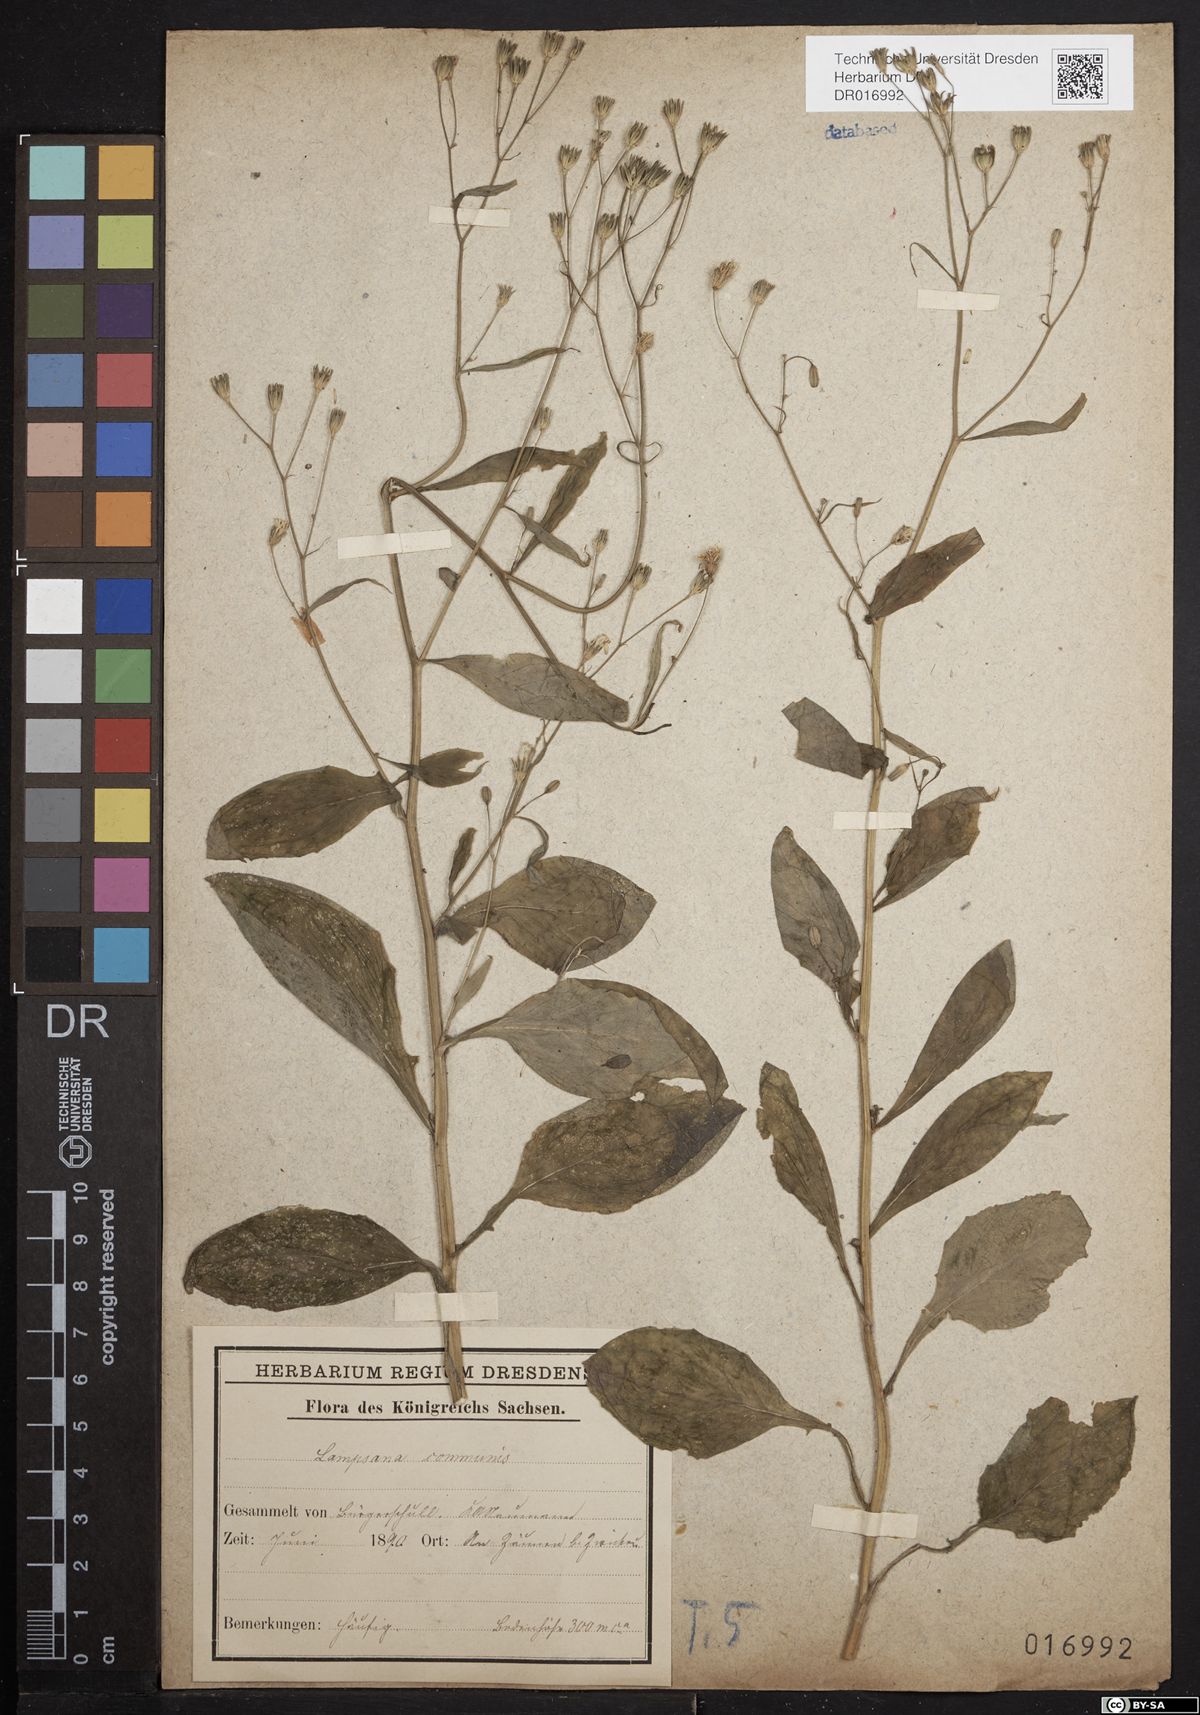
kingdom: Plantae
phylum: Tracheophyta
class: Magnoliopsida
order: Asterales
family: Asteraceae
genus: Lapsana
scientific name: Lapsana communis
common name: Nipplewort
